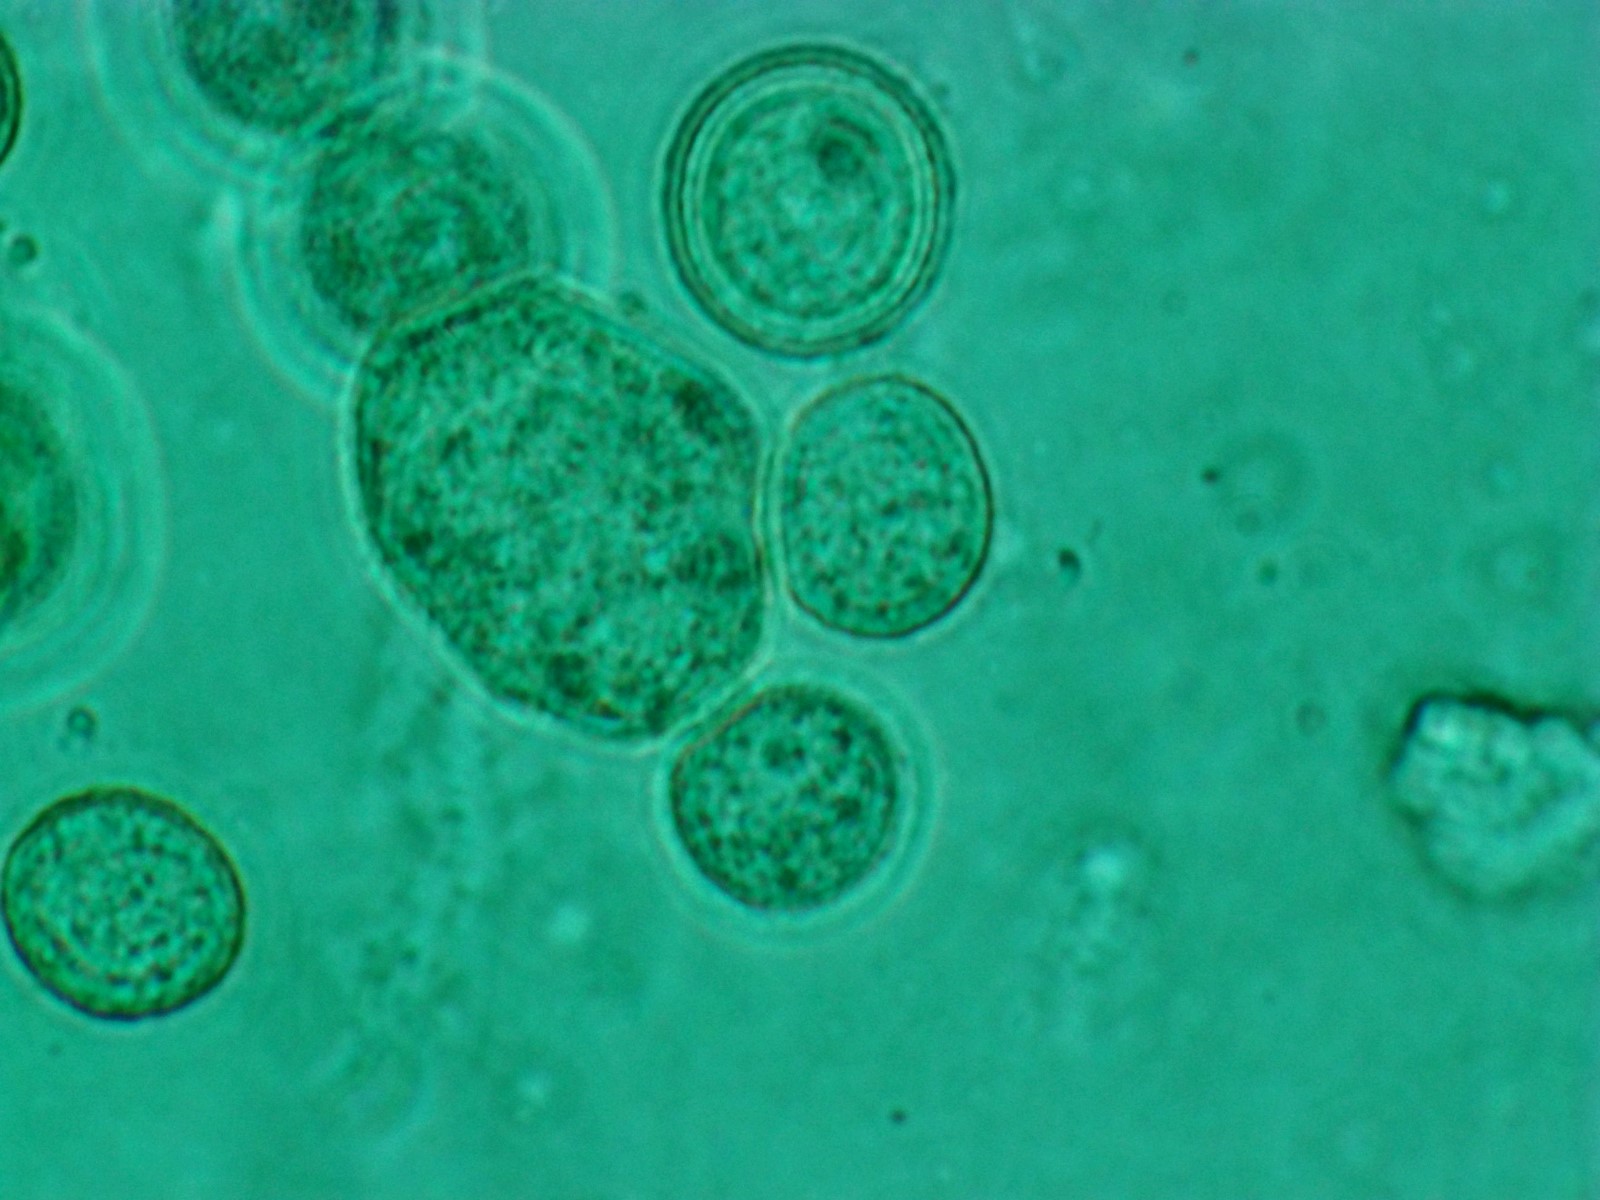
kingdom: Protozoa
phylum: Mycetozoa
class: Myxomycetes
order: Trichiales
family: Trichiaceae
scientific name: Trichiaceae
